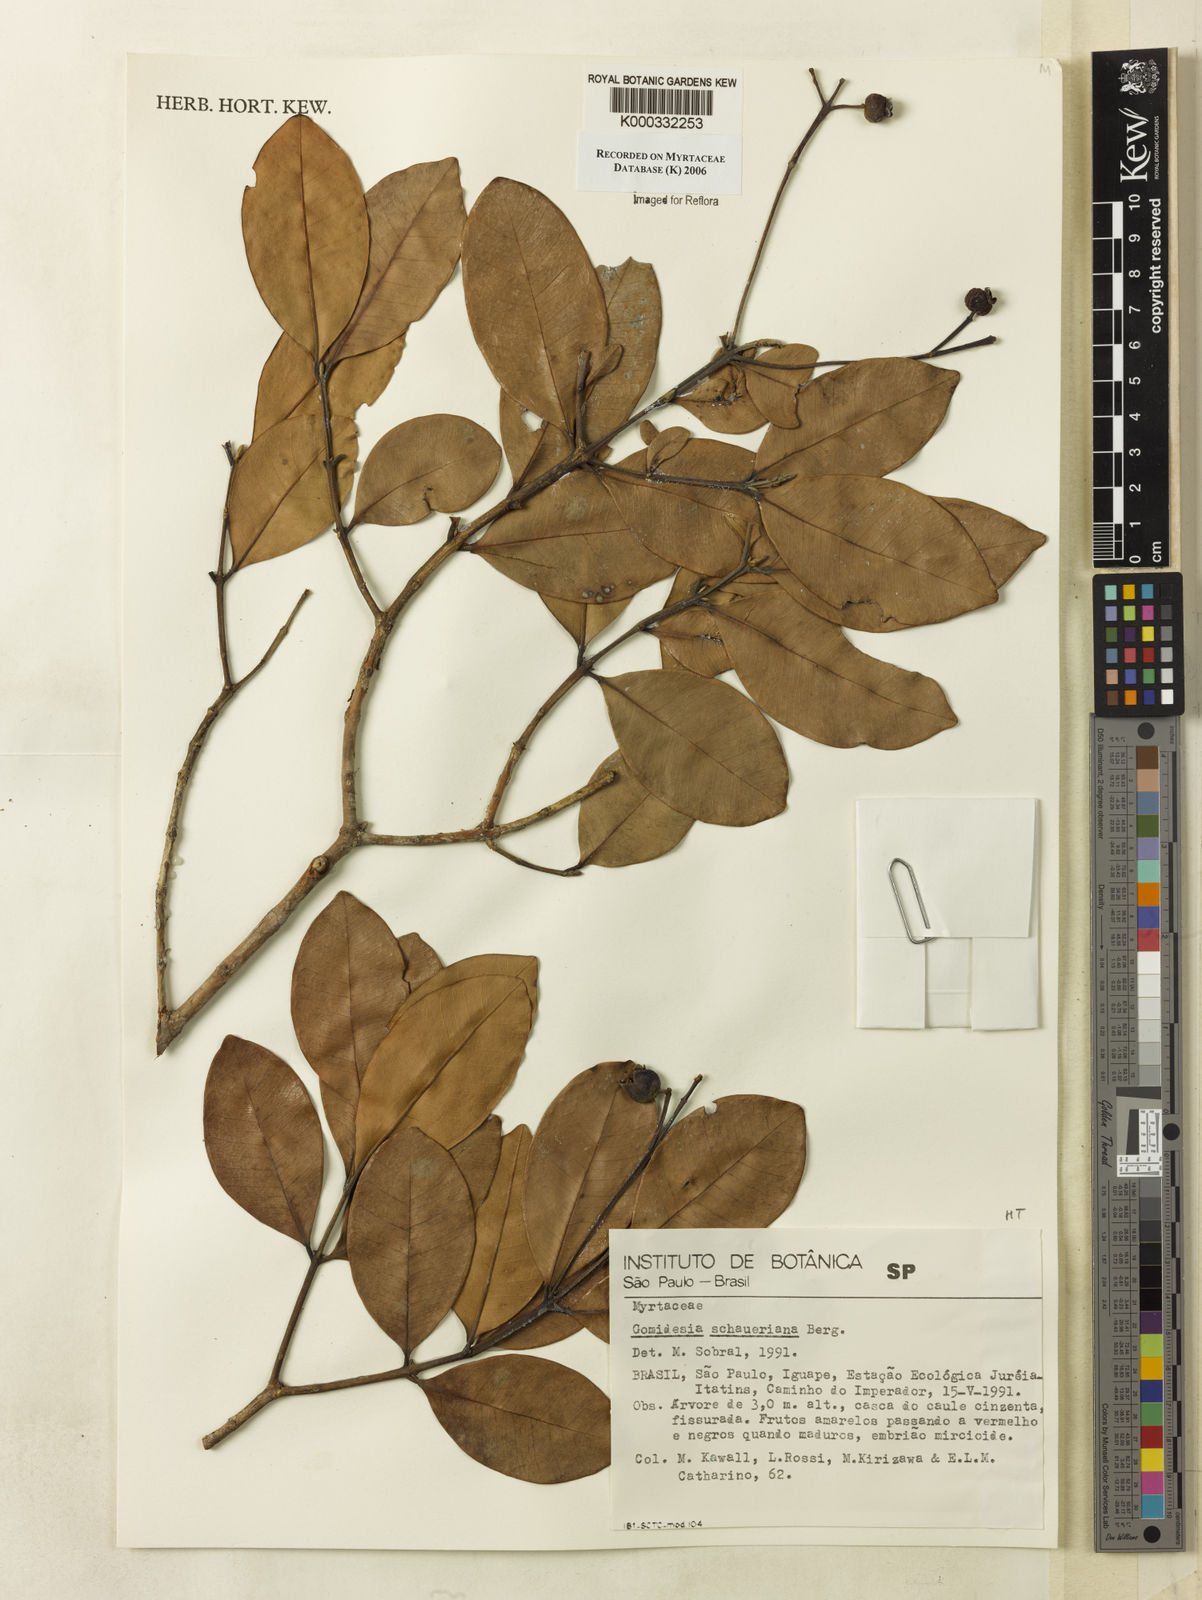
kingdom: Plantae
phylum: Tracheophyta
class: Magnoliopsida
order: Myrtales
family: Myrtaceae
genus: Myrcia
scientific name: Myrcia freyreissiana
